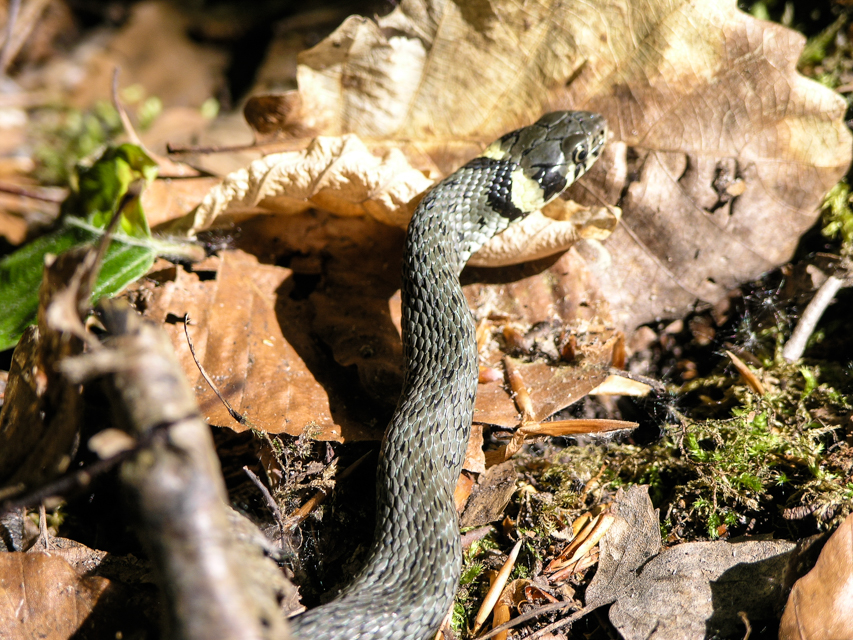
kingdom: Animalia
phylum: Chordata
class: Squamata
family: Colubridae
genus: Natrix
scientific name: Natrix natrix
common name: Grass snake
